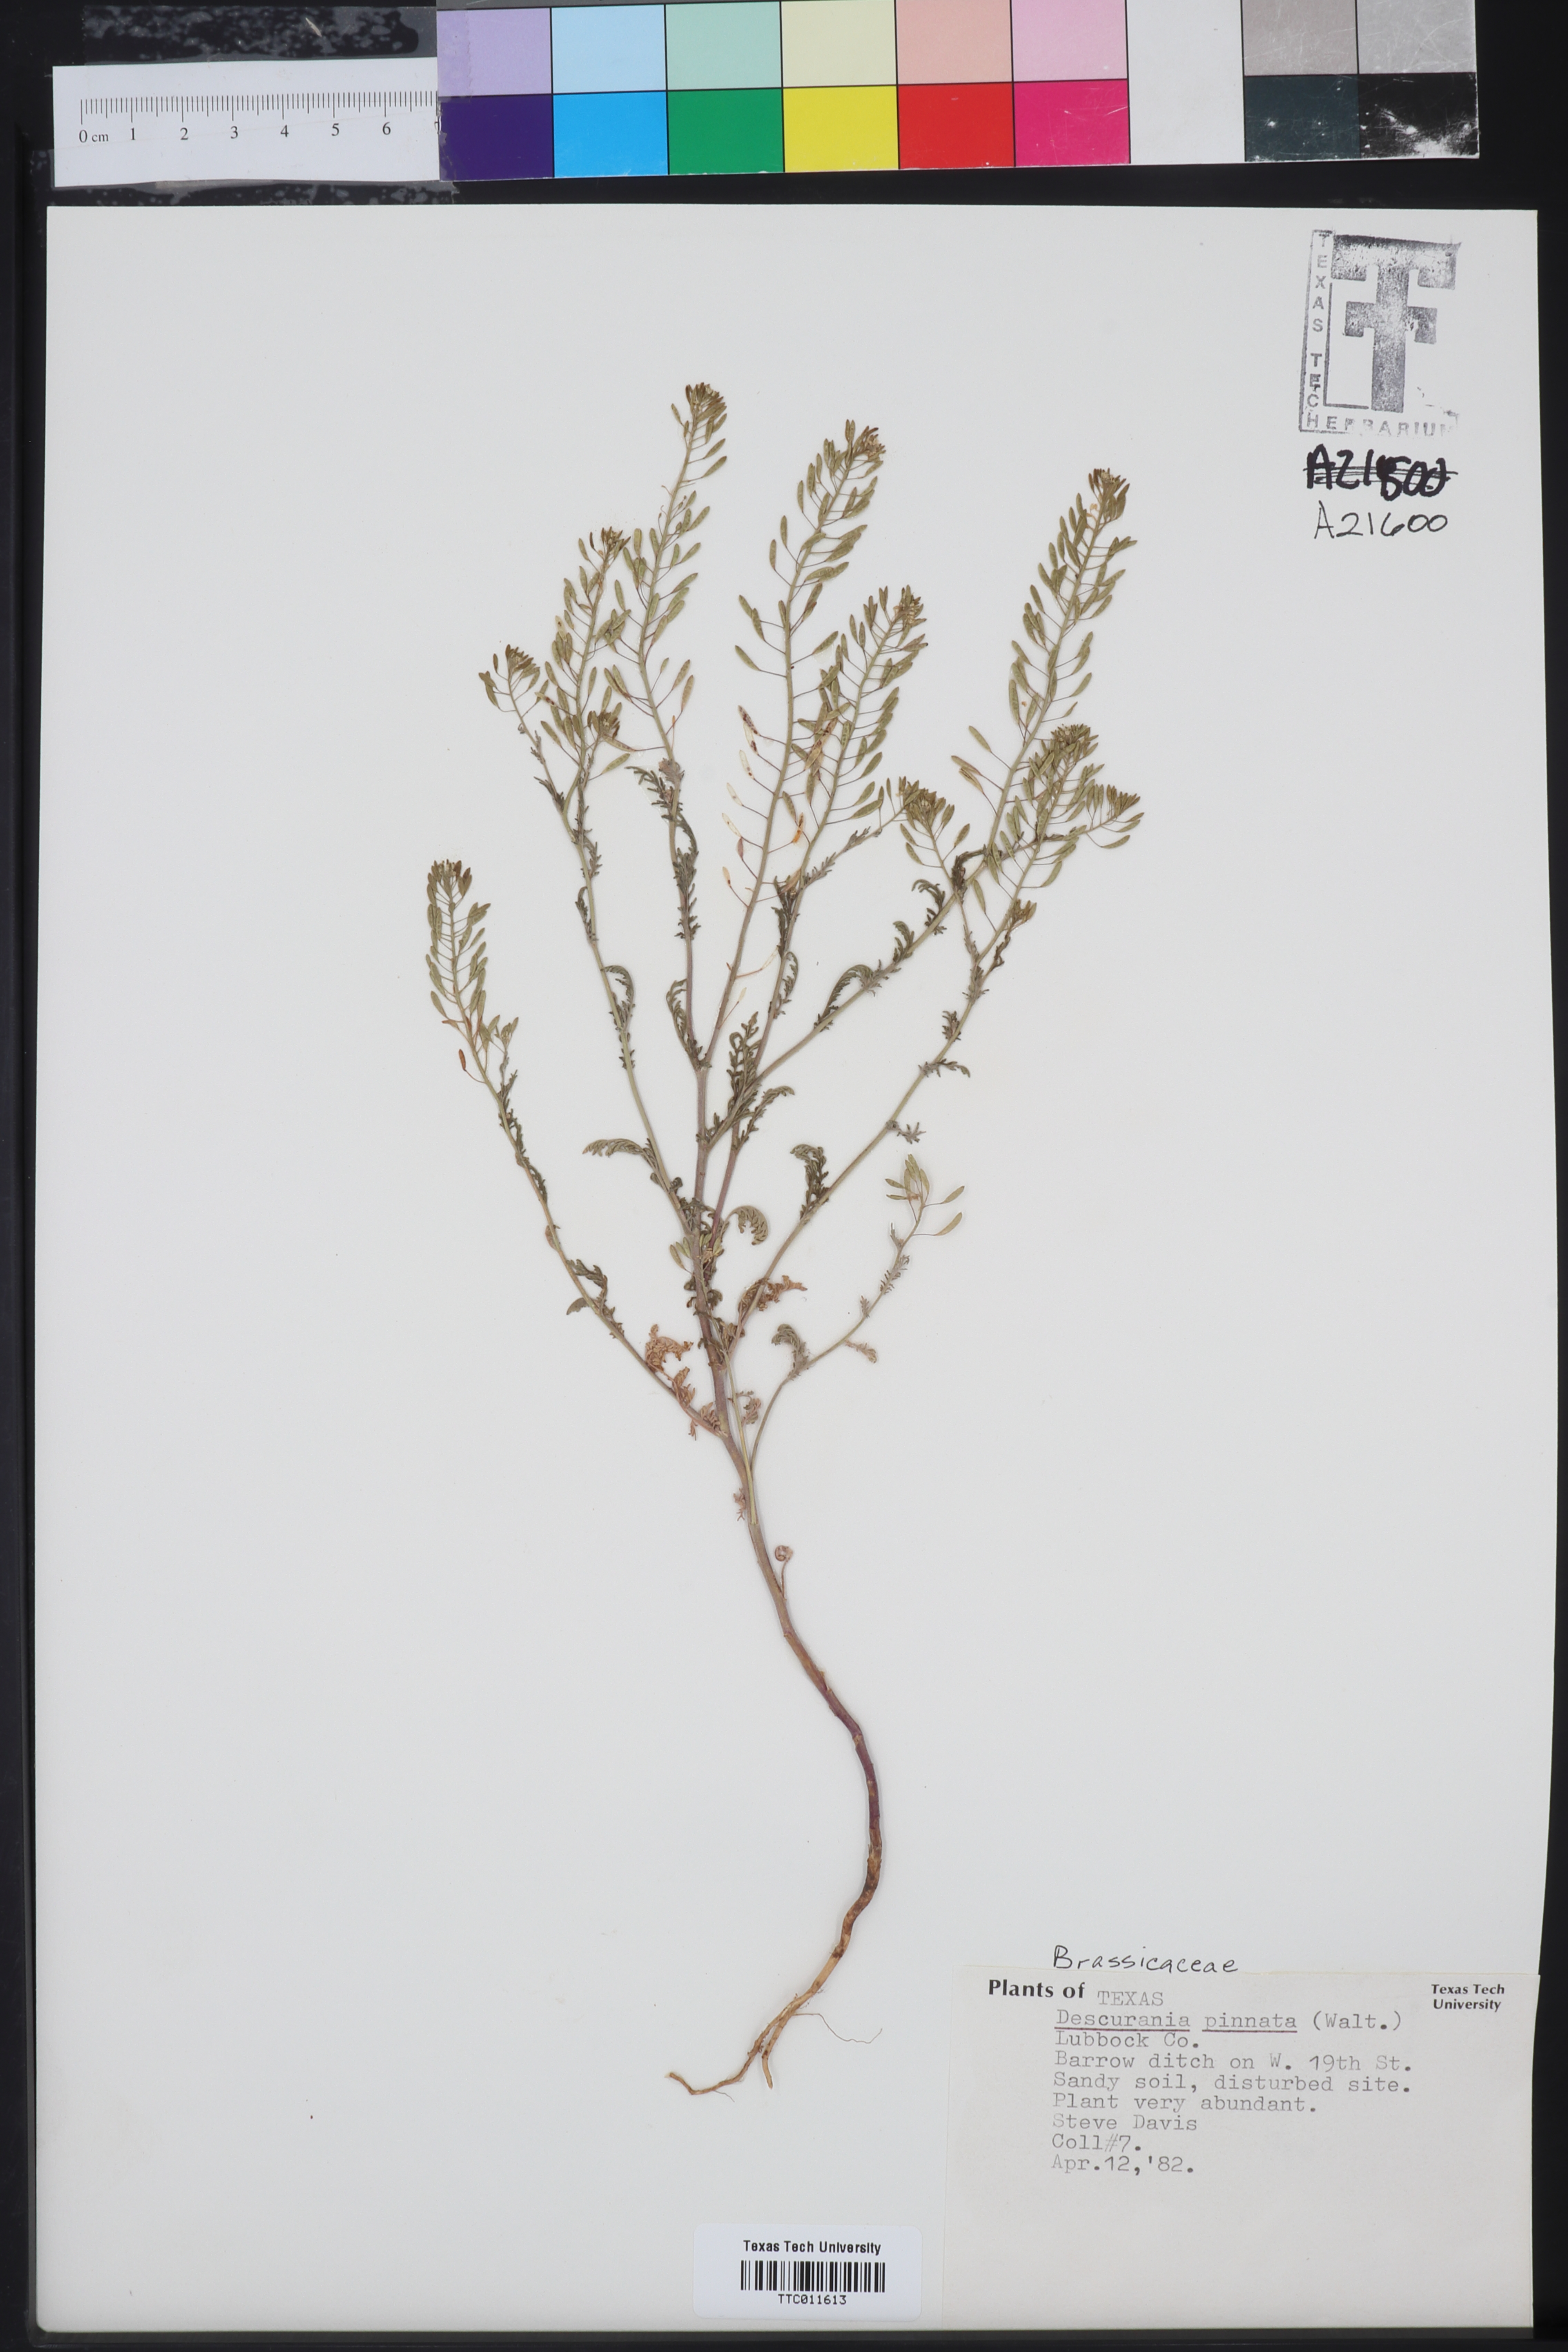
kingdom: Plantae
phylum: Tracheophyta
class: Magnoliopsida
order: Brassicales
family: Brassicaceae
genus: Descurainia
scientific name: Descurainia pinnata
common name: Western tansy mustard
